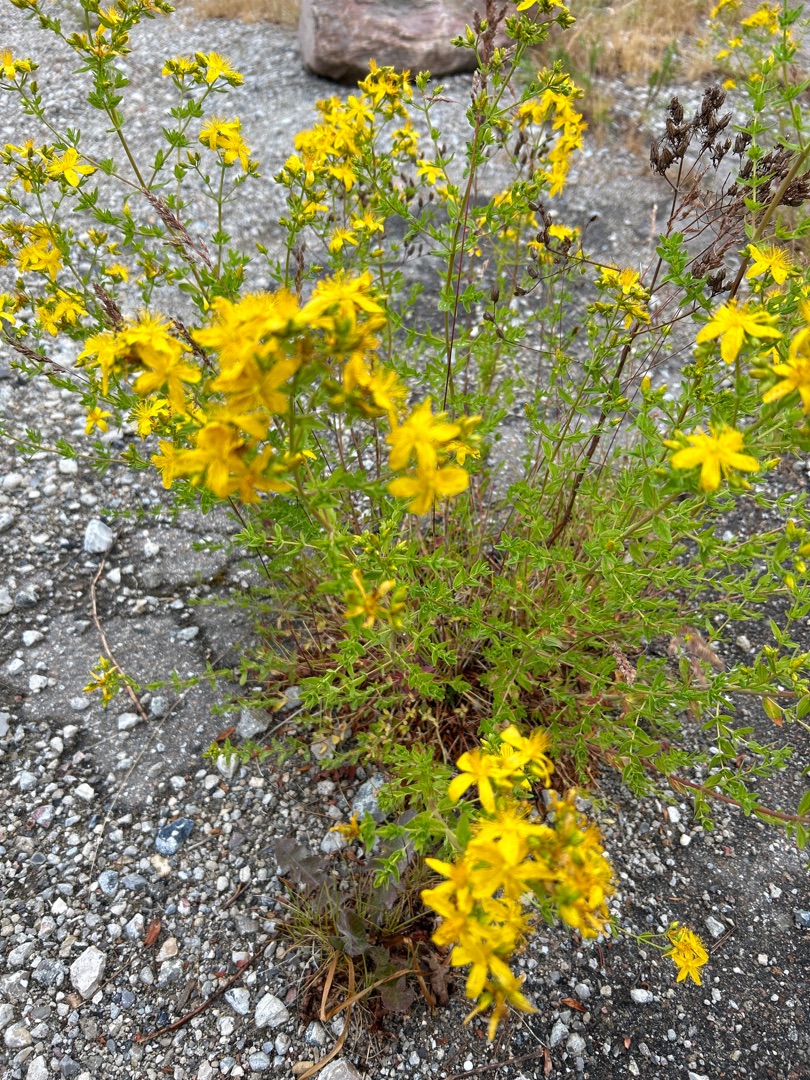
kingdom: Plantae
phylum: Tracheophyta
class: Magnoliopsida
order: Malpighiales
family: Hypericaceae
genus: Hypericum
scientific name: Hypericum perforatum
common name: Prikbladet perikon
